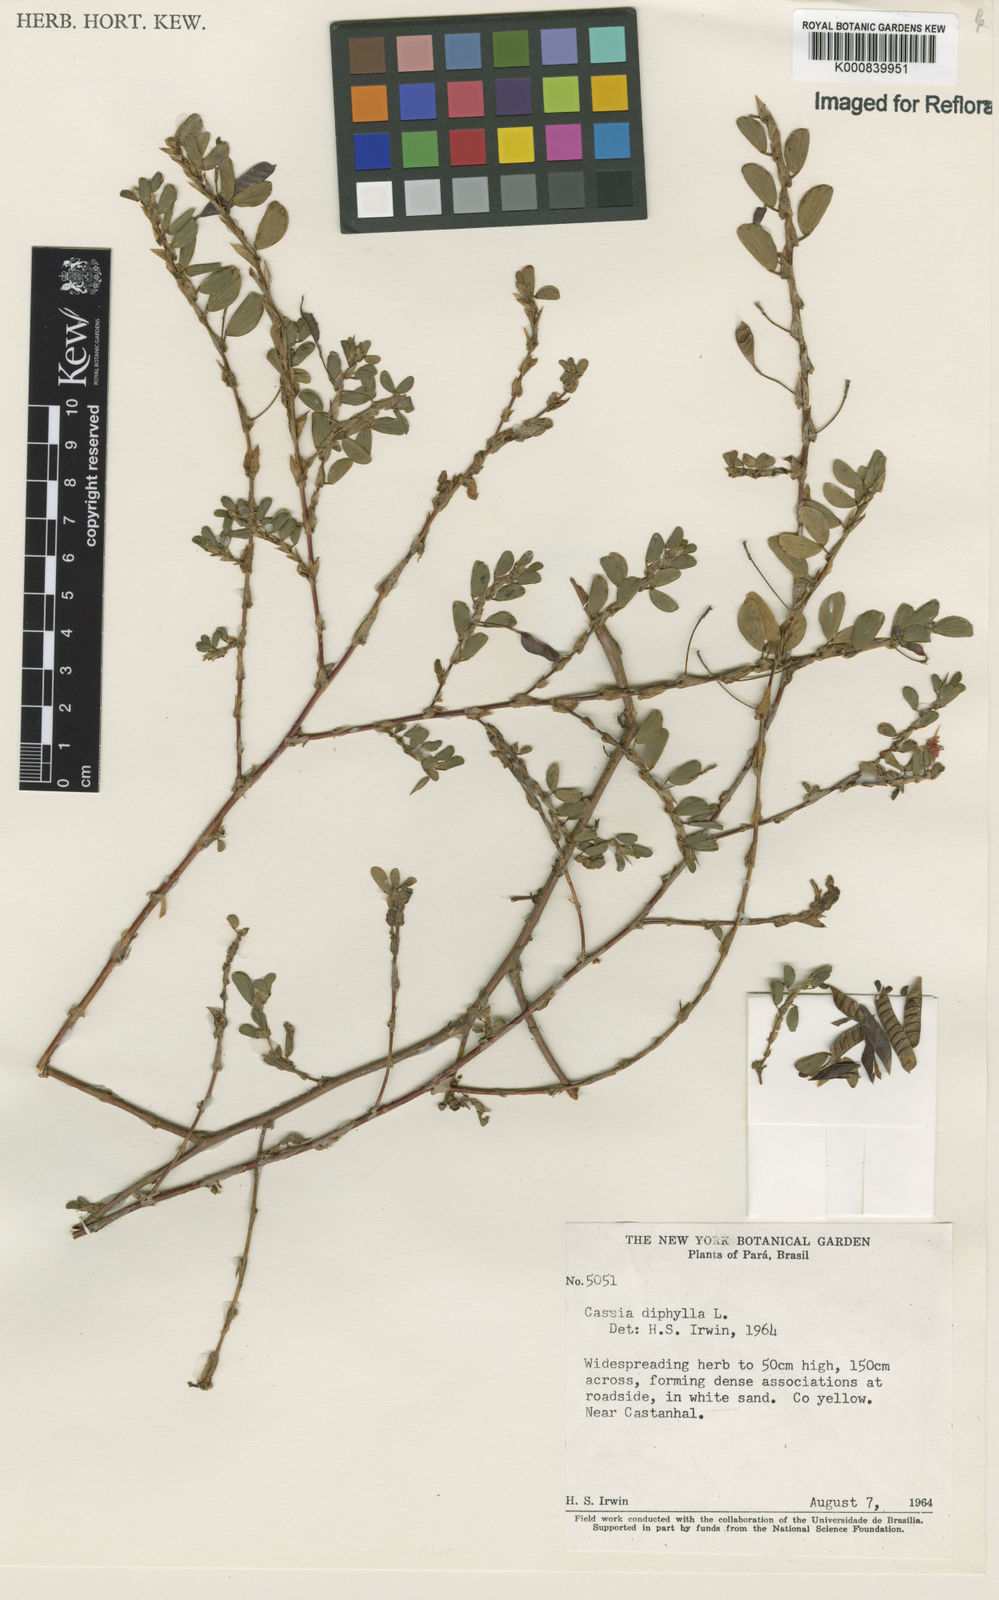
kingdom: Plantae
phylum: Tracheophyta
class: Magnoliopsida
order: Fabales
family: Fabaceae
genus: Chamaecrista
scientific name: Chamaecrista diphylla
